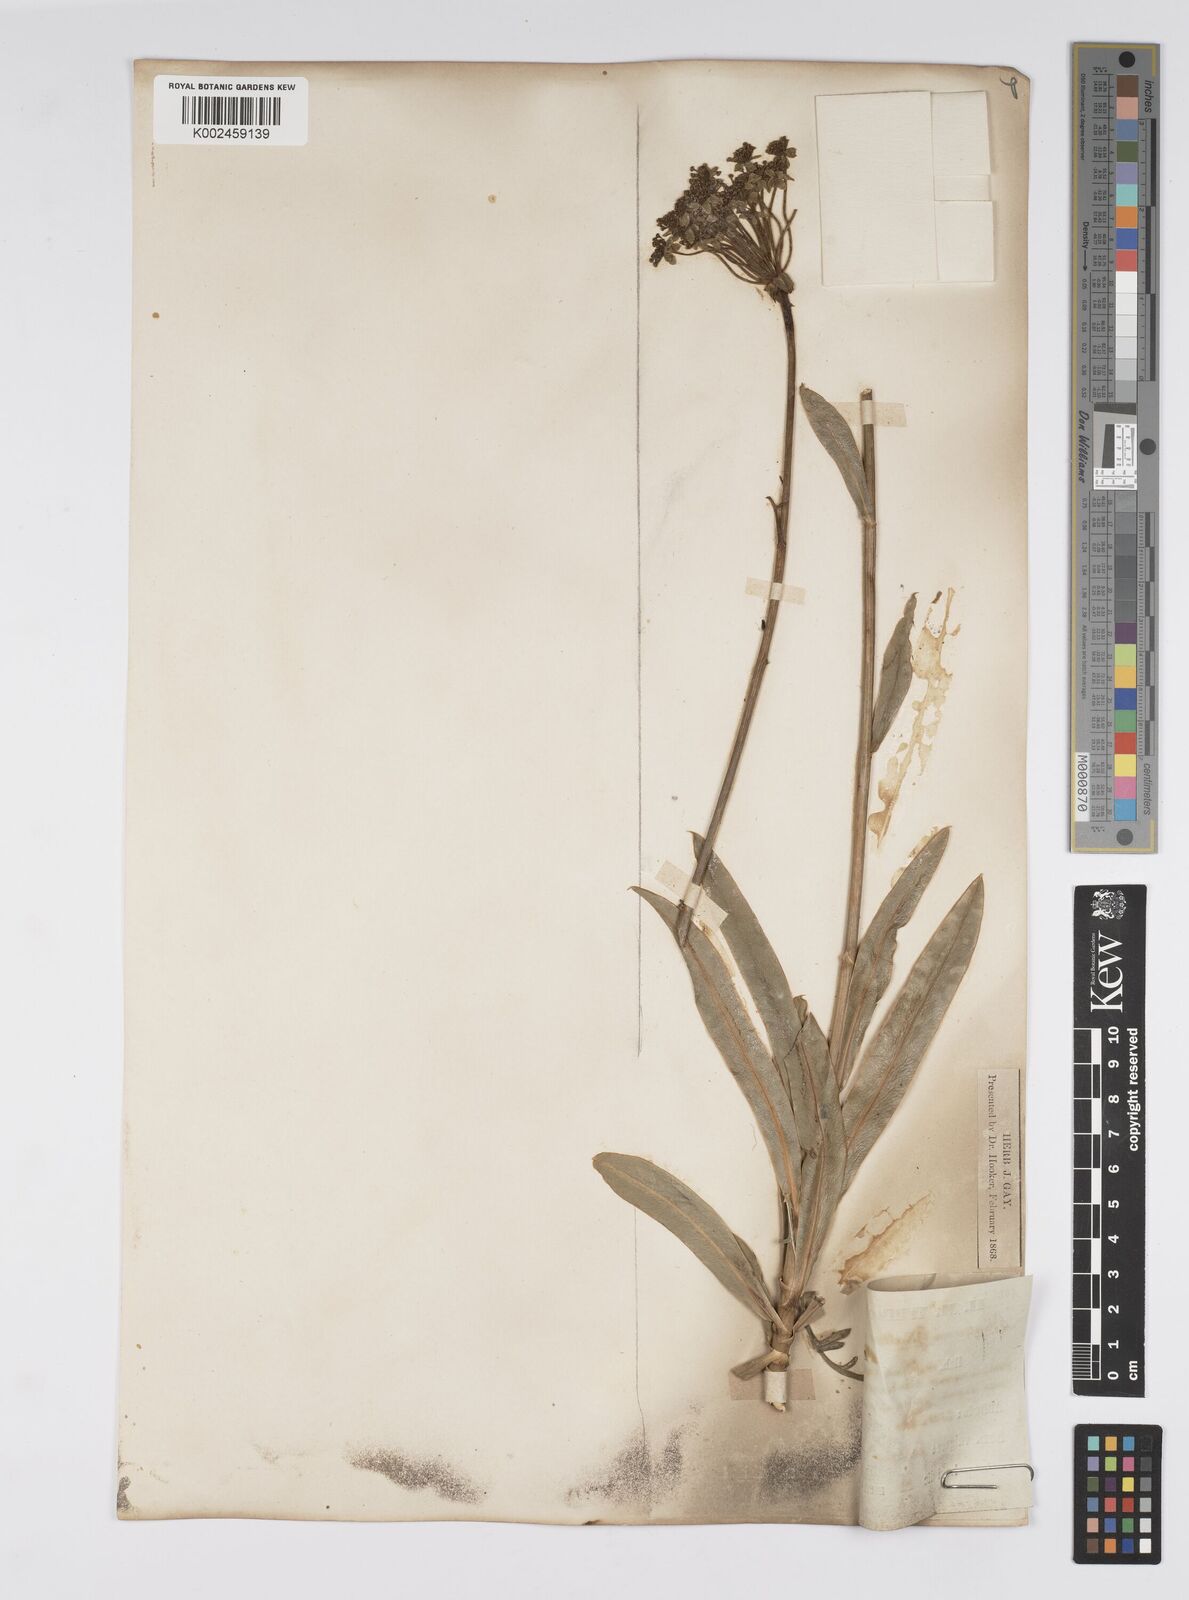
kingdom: Plantae
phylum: Tracheophyta
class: Magnoliopsida
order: Apiales
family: Apiaceae
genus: Bupleurum
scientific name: Bupleurum gibraltaricum
